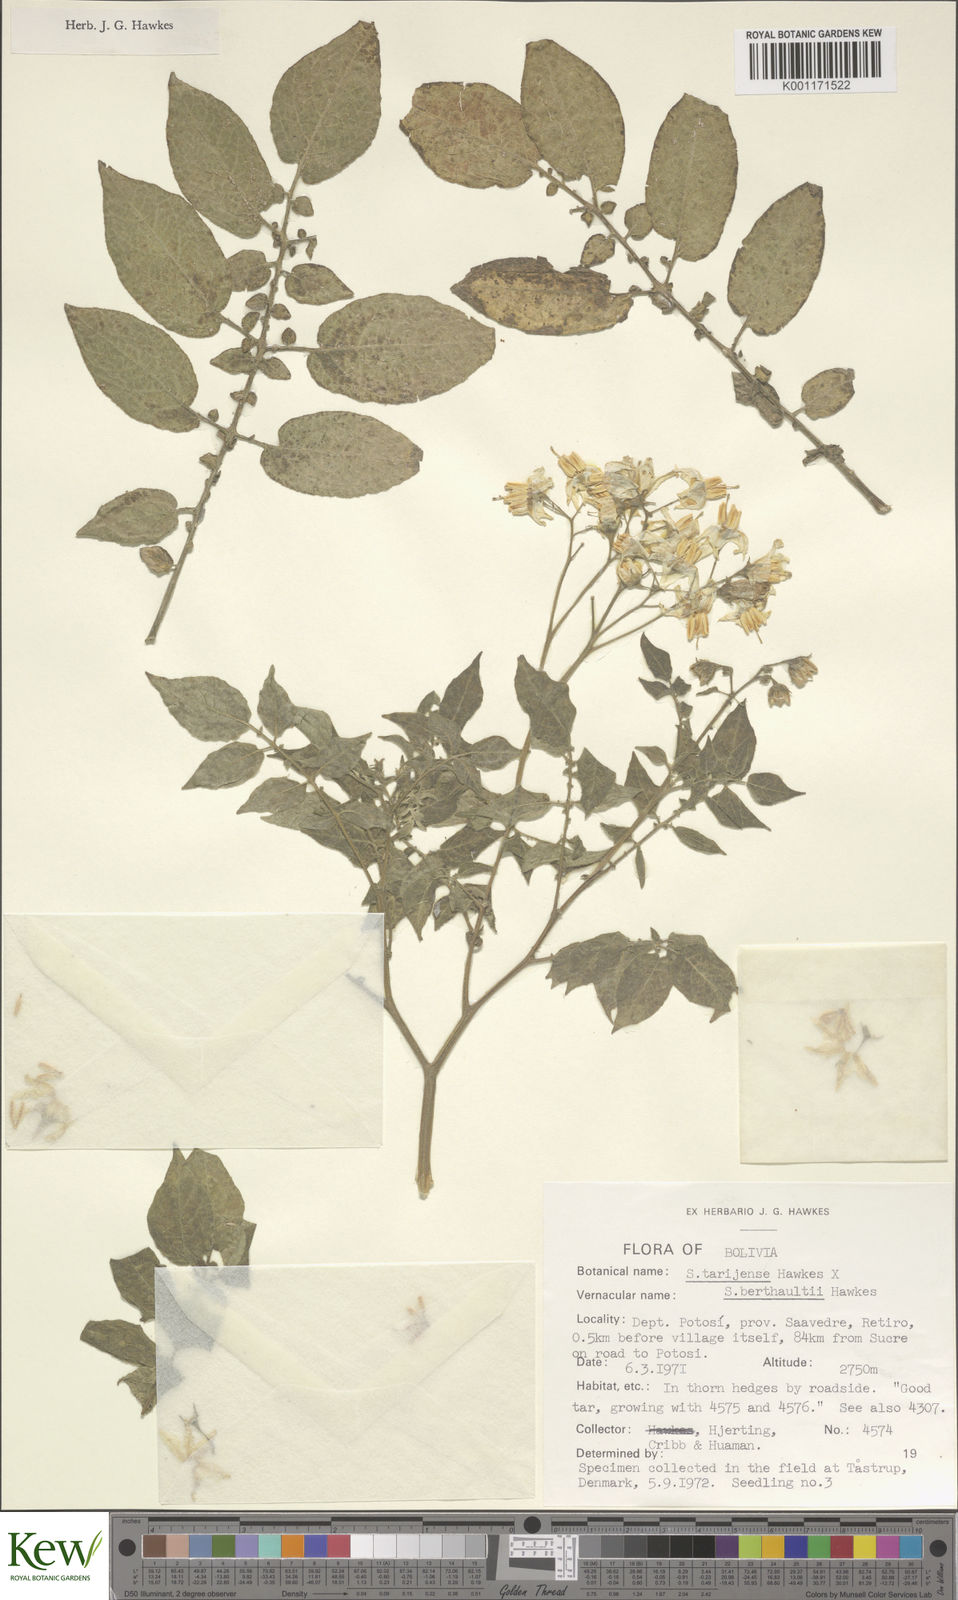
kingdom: Plantae
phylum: Tracheophyta
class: Magnoliopsida
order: Solanales
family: Solanaceae
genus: Solanum
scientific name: Solanum tarijense
